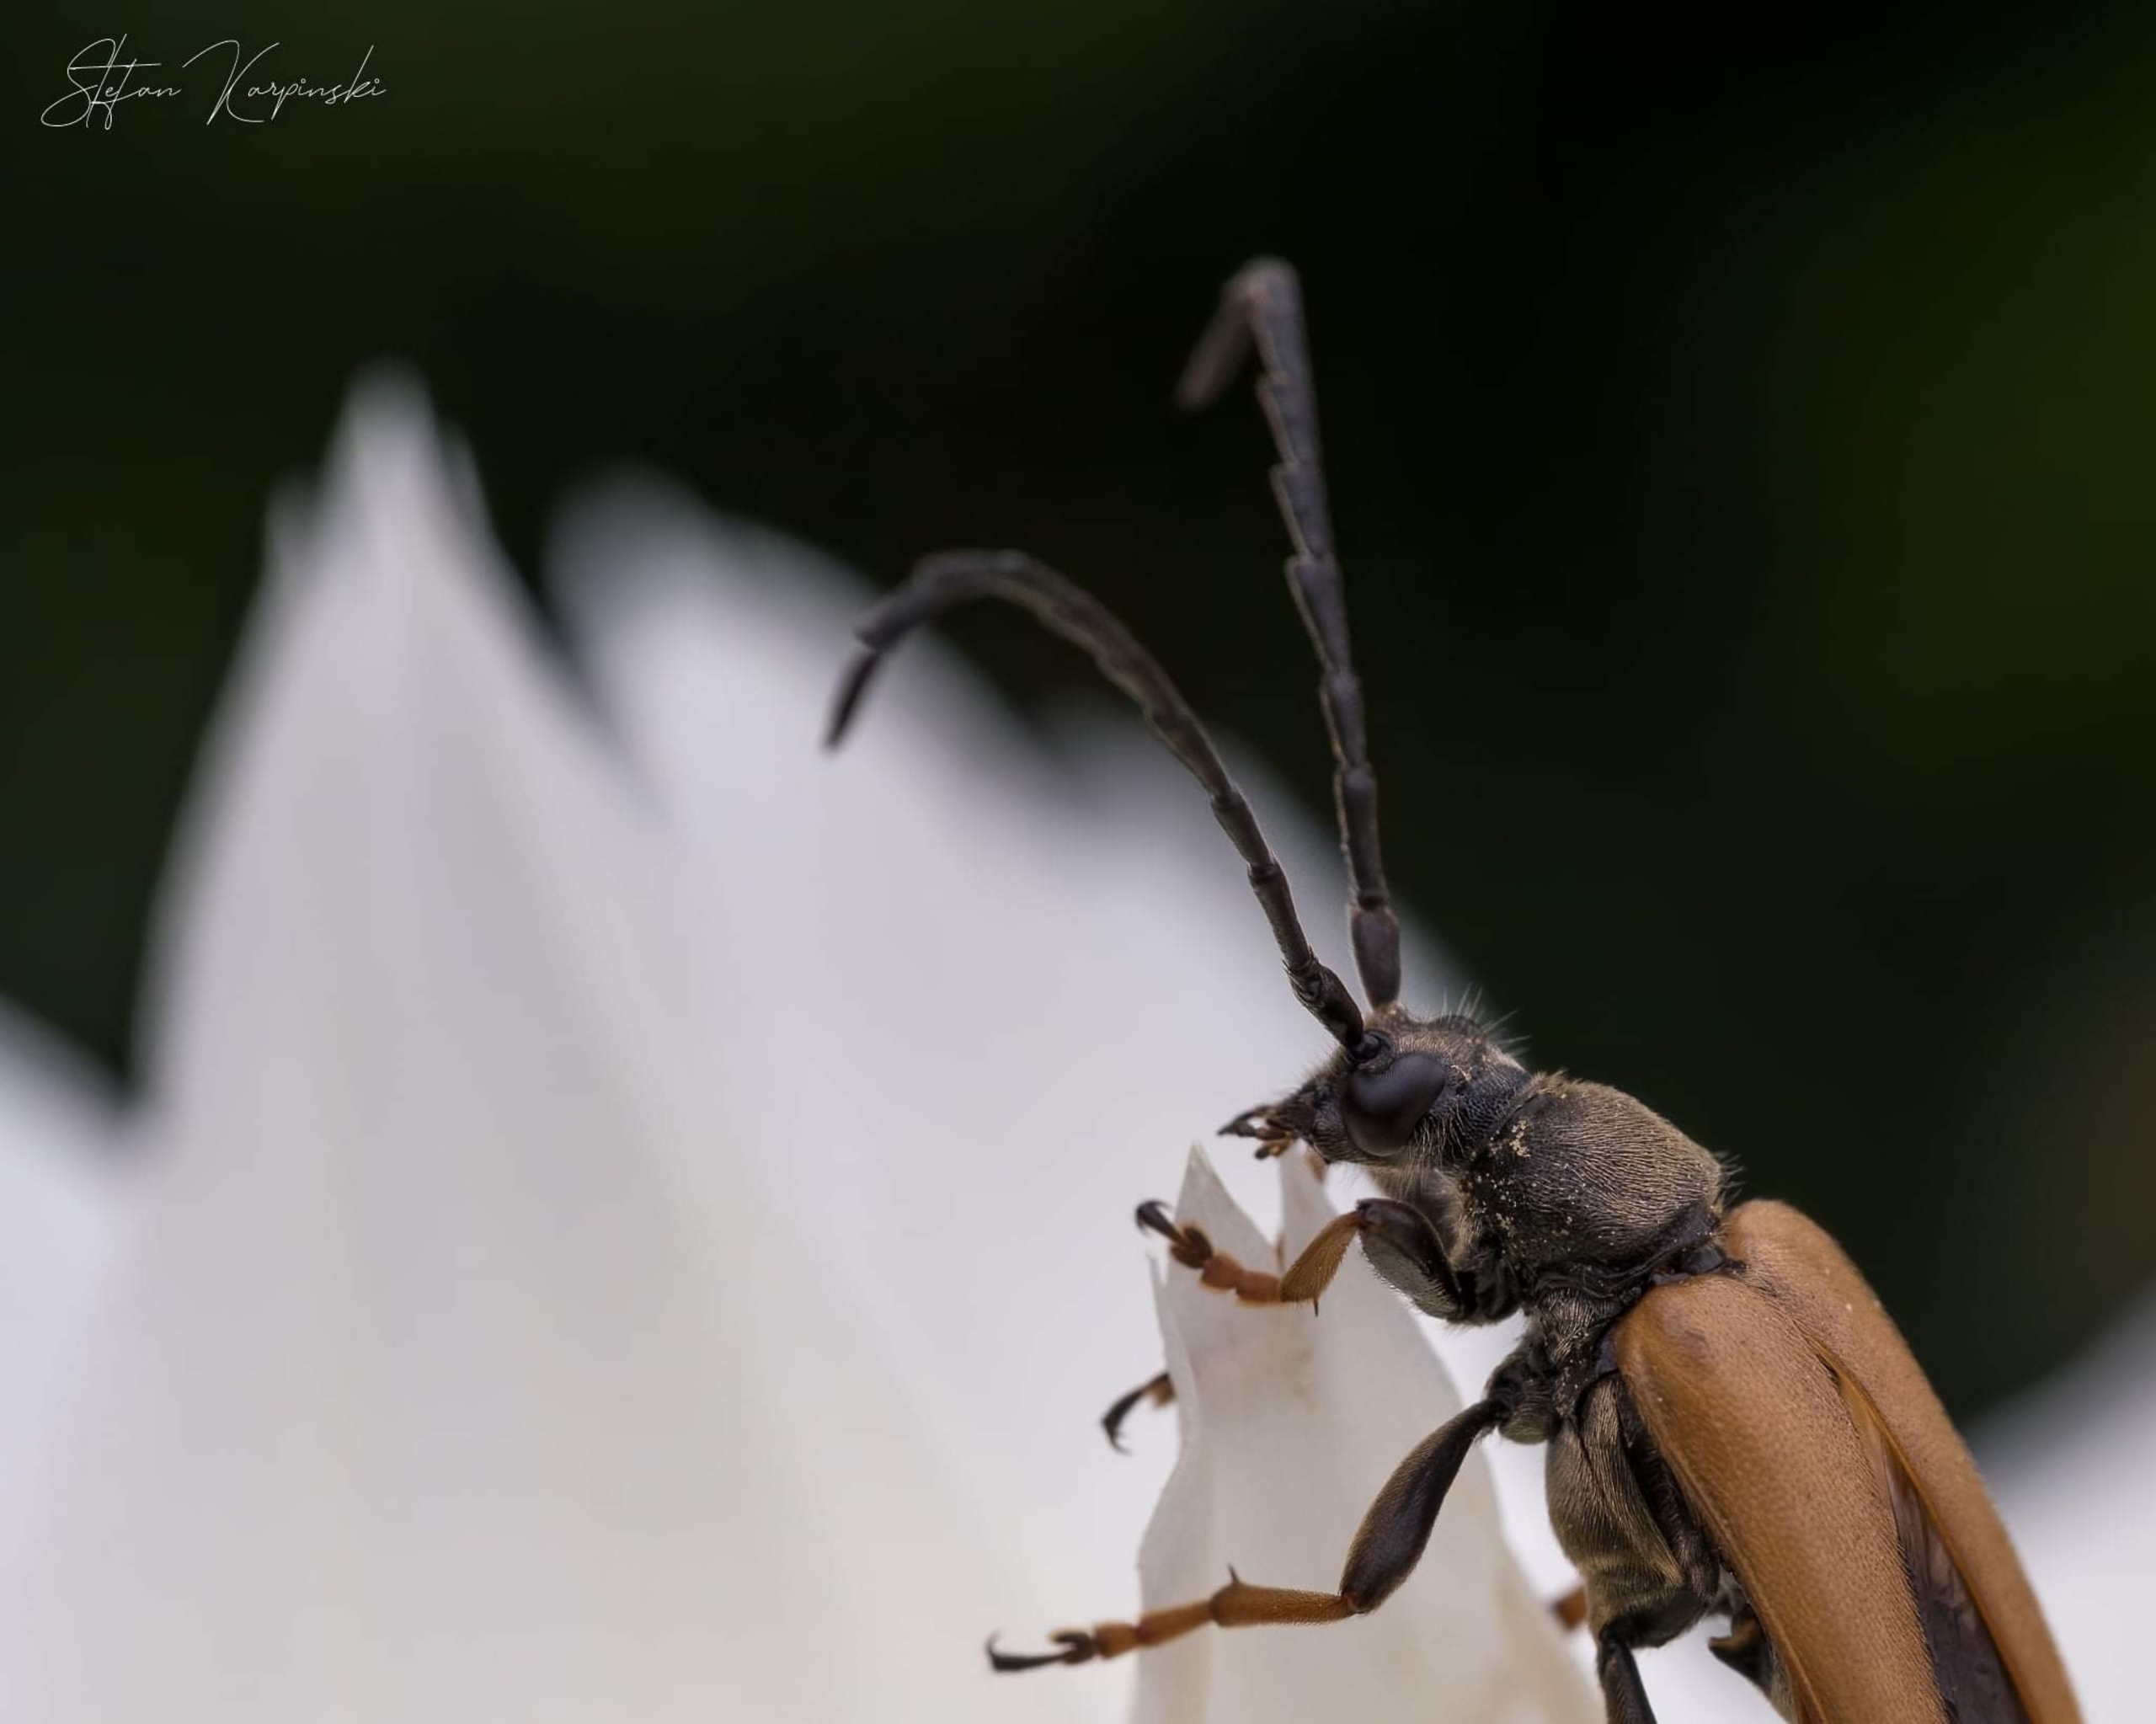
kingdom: Animalia
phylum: Arthropoda
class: Insecta
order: Coleoptera
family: Cerambycidae
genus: Stictoleptura
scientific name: Stictoleptura rubra
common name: Rød blomsterbuk
